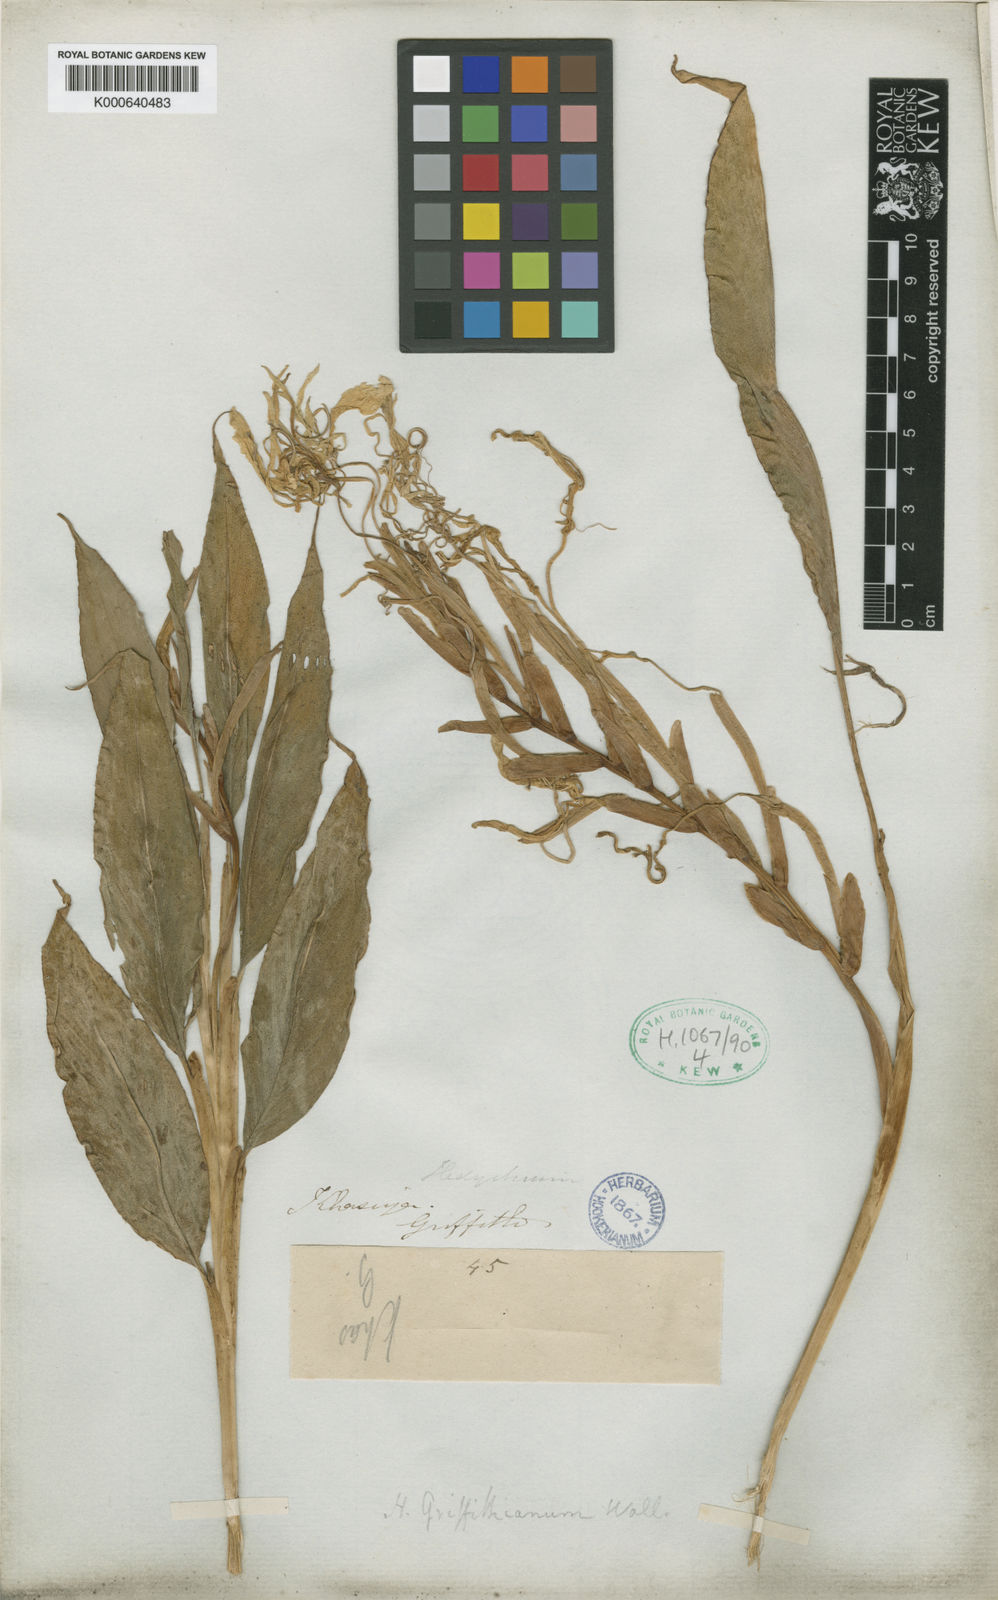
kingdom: Plantae
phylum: Tracheophyta
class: Liliopsida
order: Zingiberales
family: Zingiberaceae
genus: Hedychium
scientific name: Hedychium griffithianum
